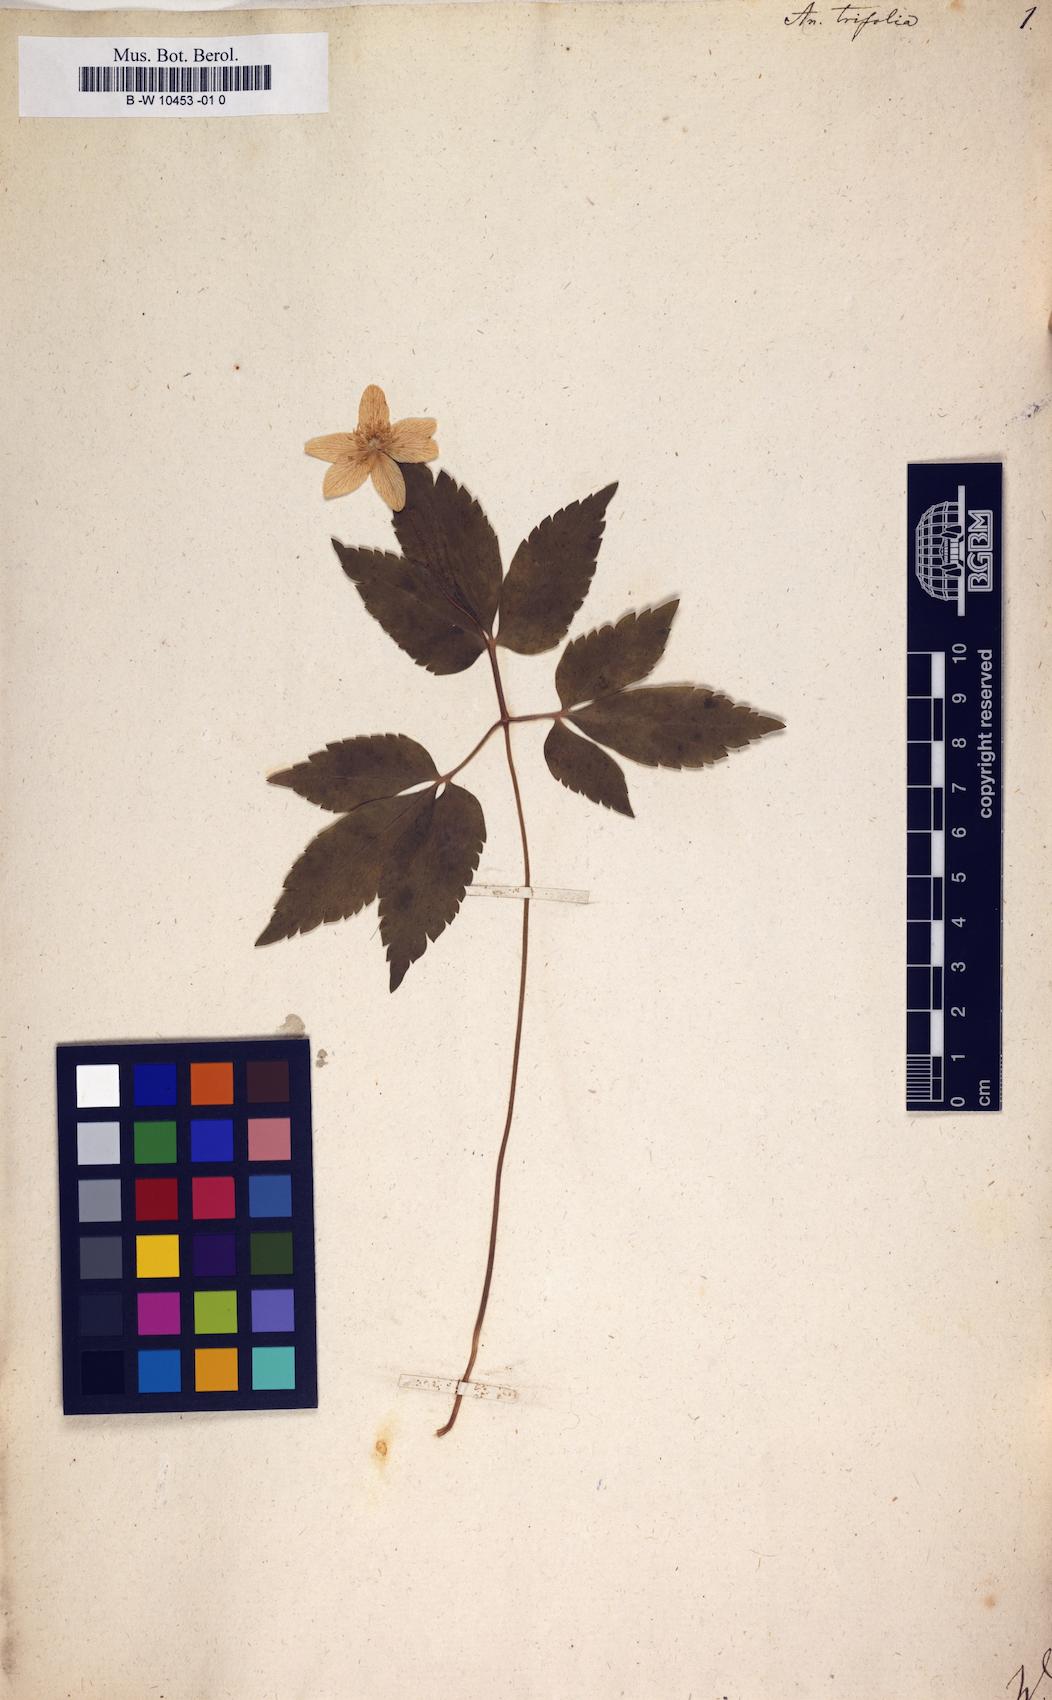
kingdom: Plantae
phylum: Tracheophyta
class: Magnoliopsida
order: Ranunculales
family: Ranunculaceae
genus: Anemone
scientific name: Anemone trifolia
